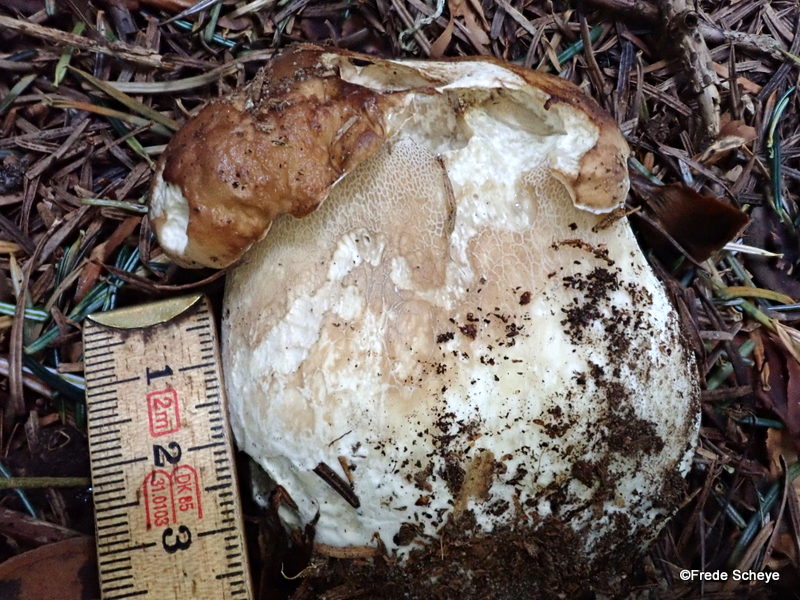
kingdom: Fungi
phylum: Basidiomycota
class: Agaricomycetes
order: Boletales
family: Boletaceae
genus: Boletus
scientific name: Boletus edulis
